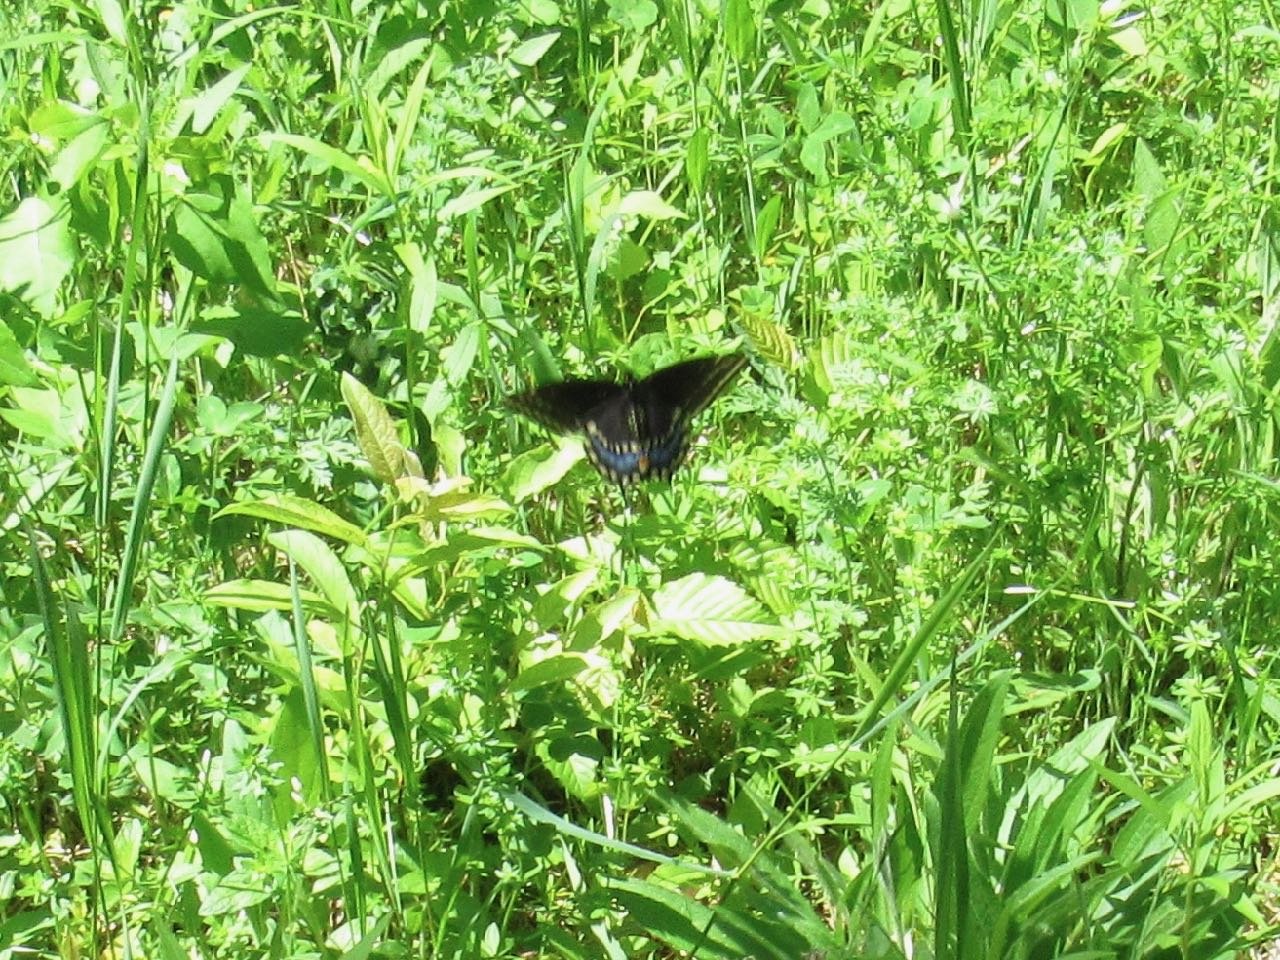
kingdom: Animalia
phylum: Arthropoda
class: Insecta
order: Lepidoptera
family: Papilionidae
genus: Papilio
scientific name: Papilio polyxenes
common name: Black Swallowtail
